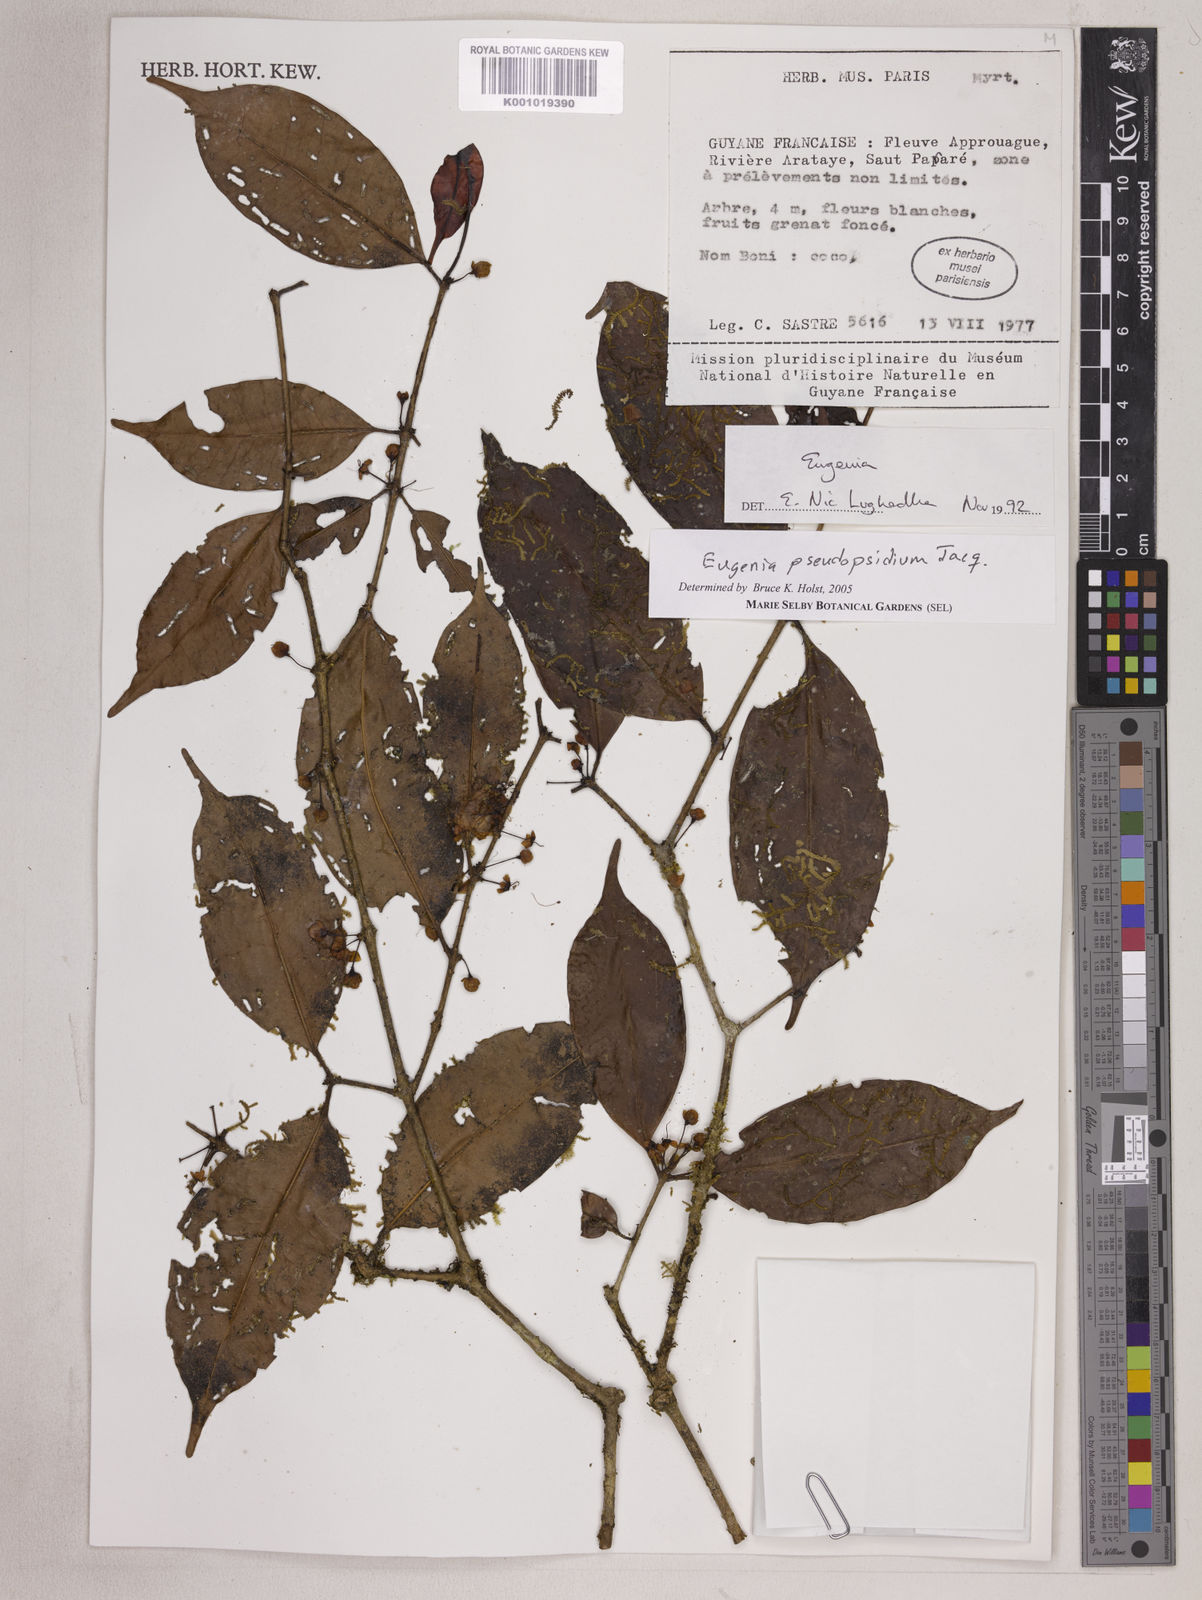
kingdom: Plantae
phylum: Tracheophyta
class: Magnoliopsida
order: Myrtales
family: Myrtaceae
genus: Eugenia
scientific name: Eugenia pseudopsidium
